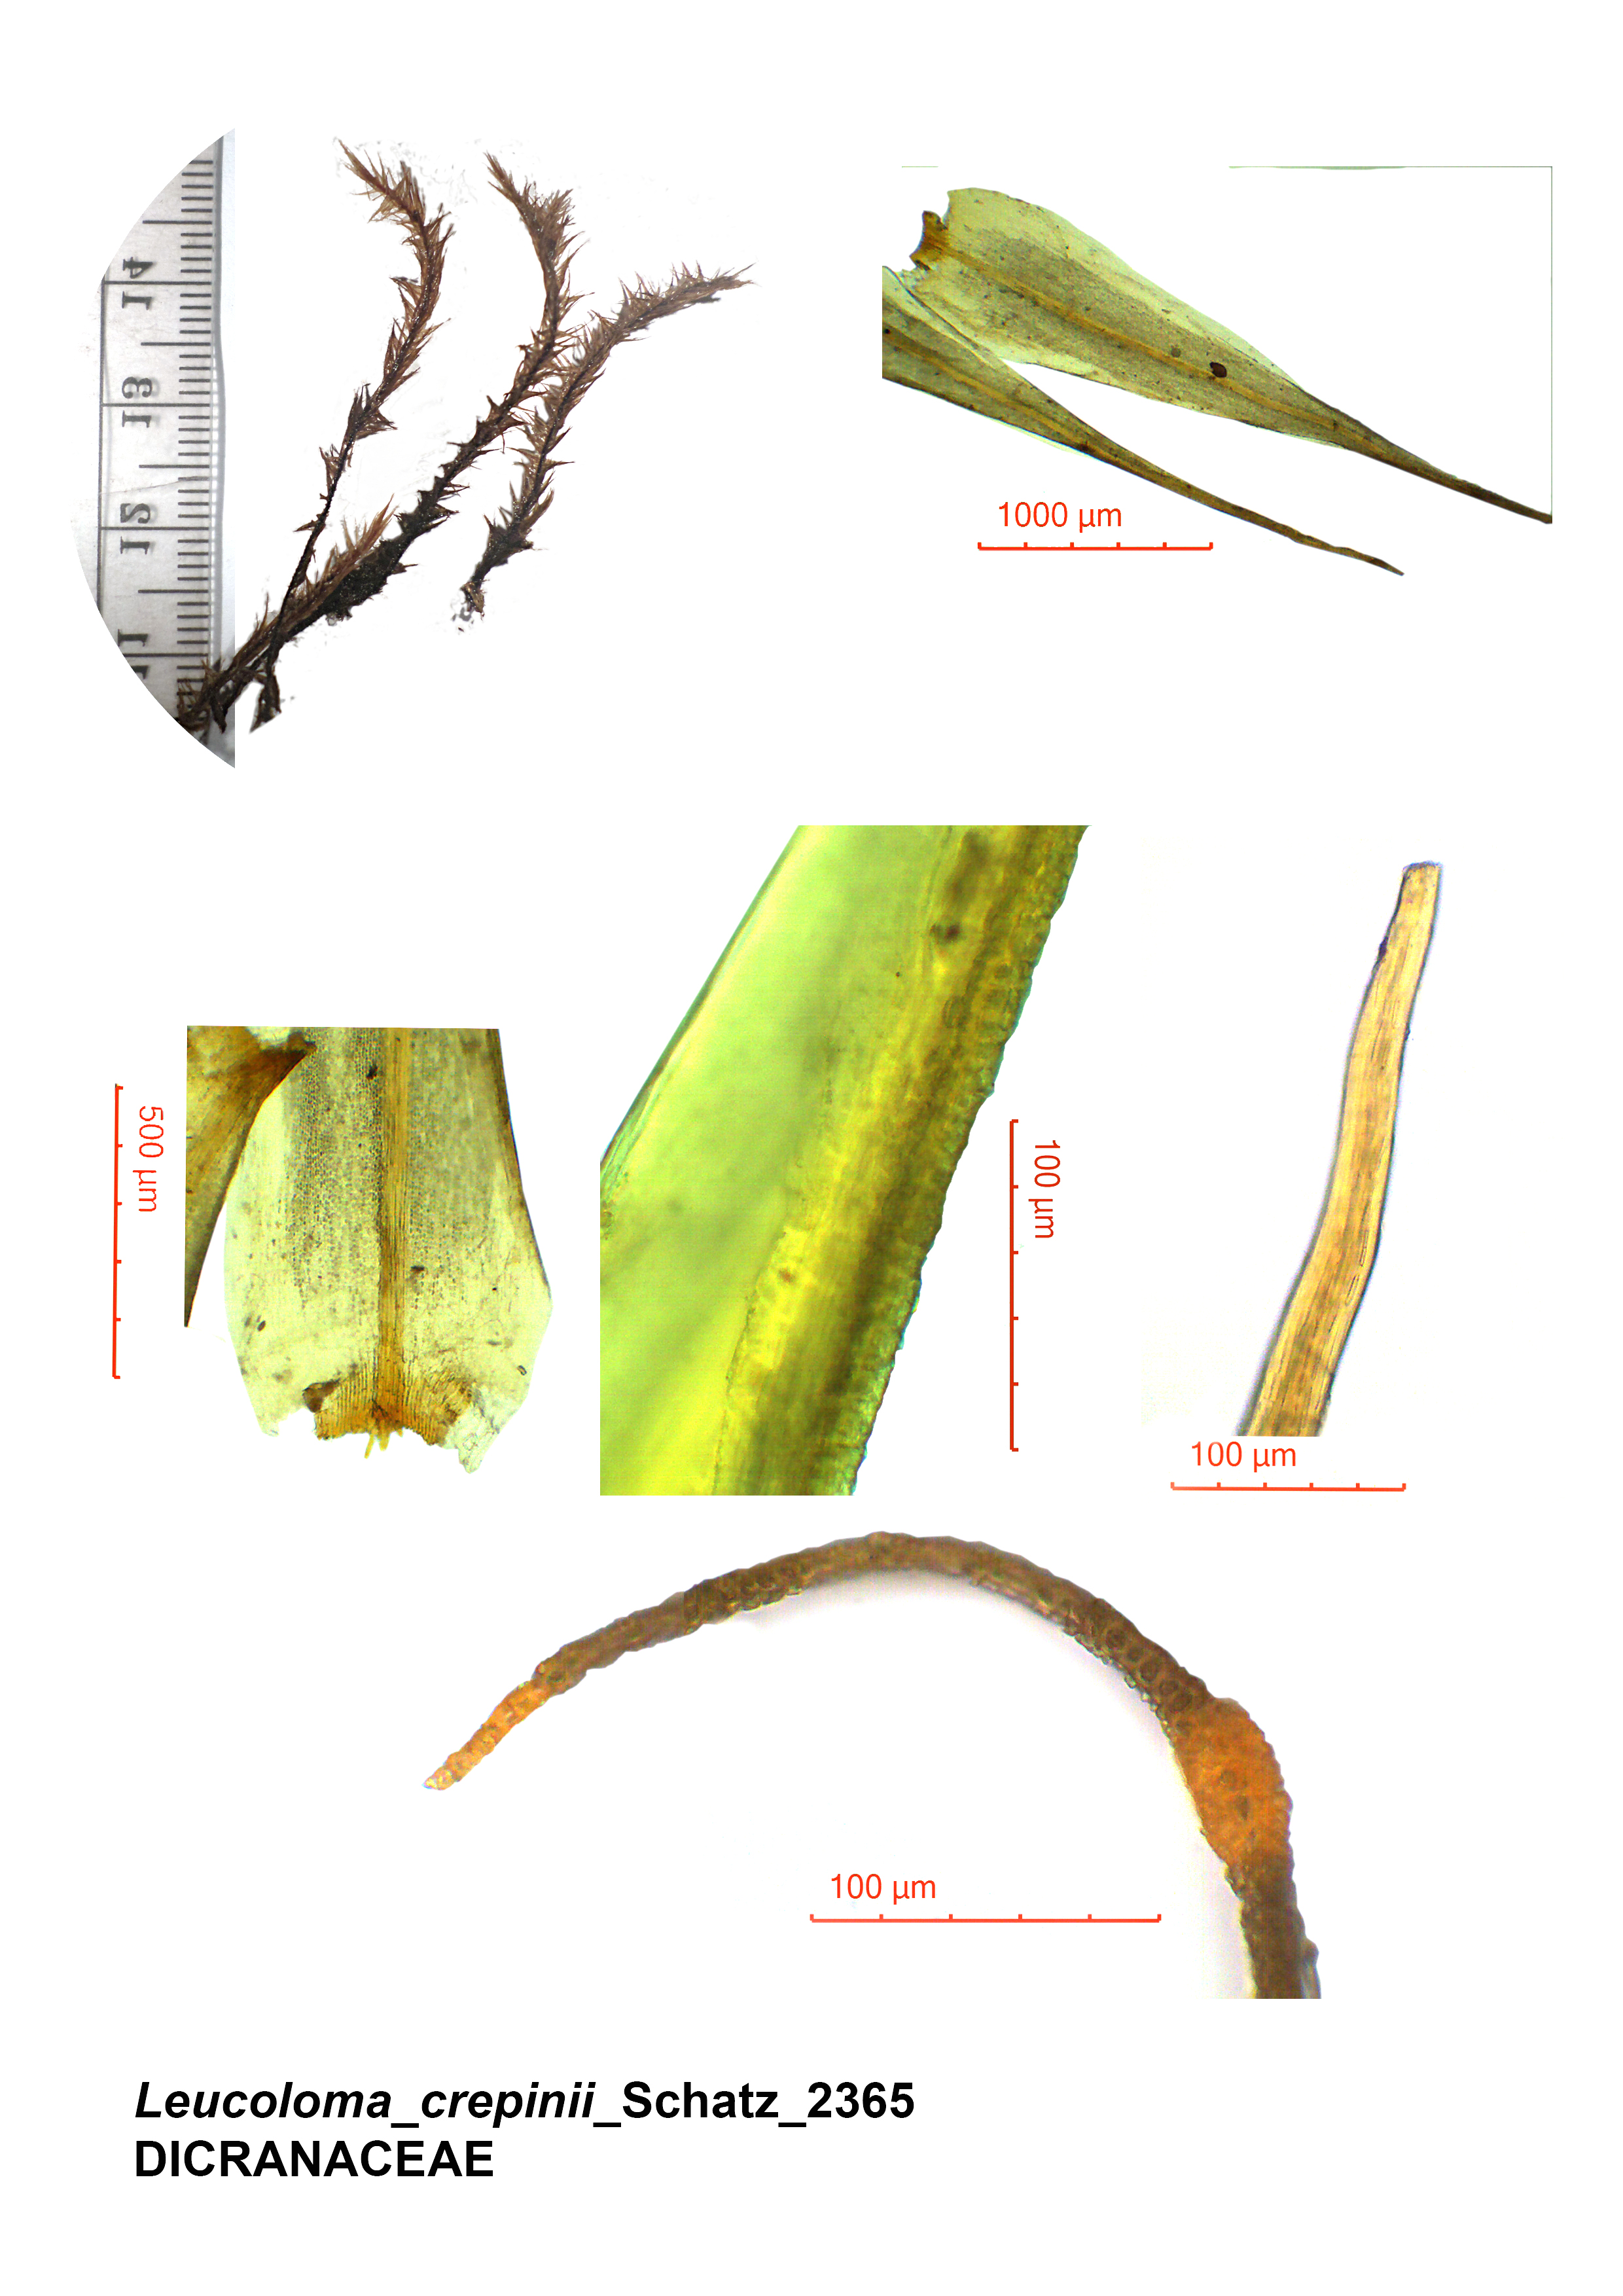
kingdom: Plantae
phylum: Bryophyta
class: Bryopsida
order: Dicranales
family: Dicranaceae
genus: Leucoloma
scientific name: Leucoloma seychellense
